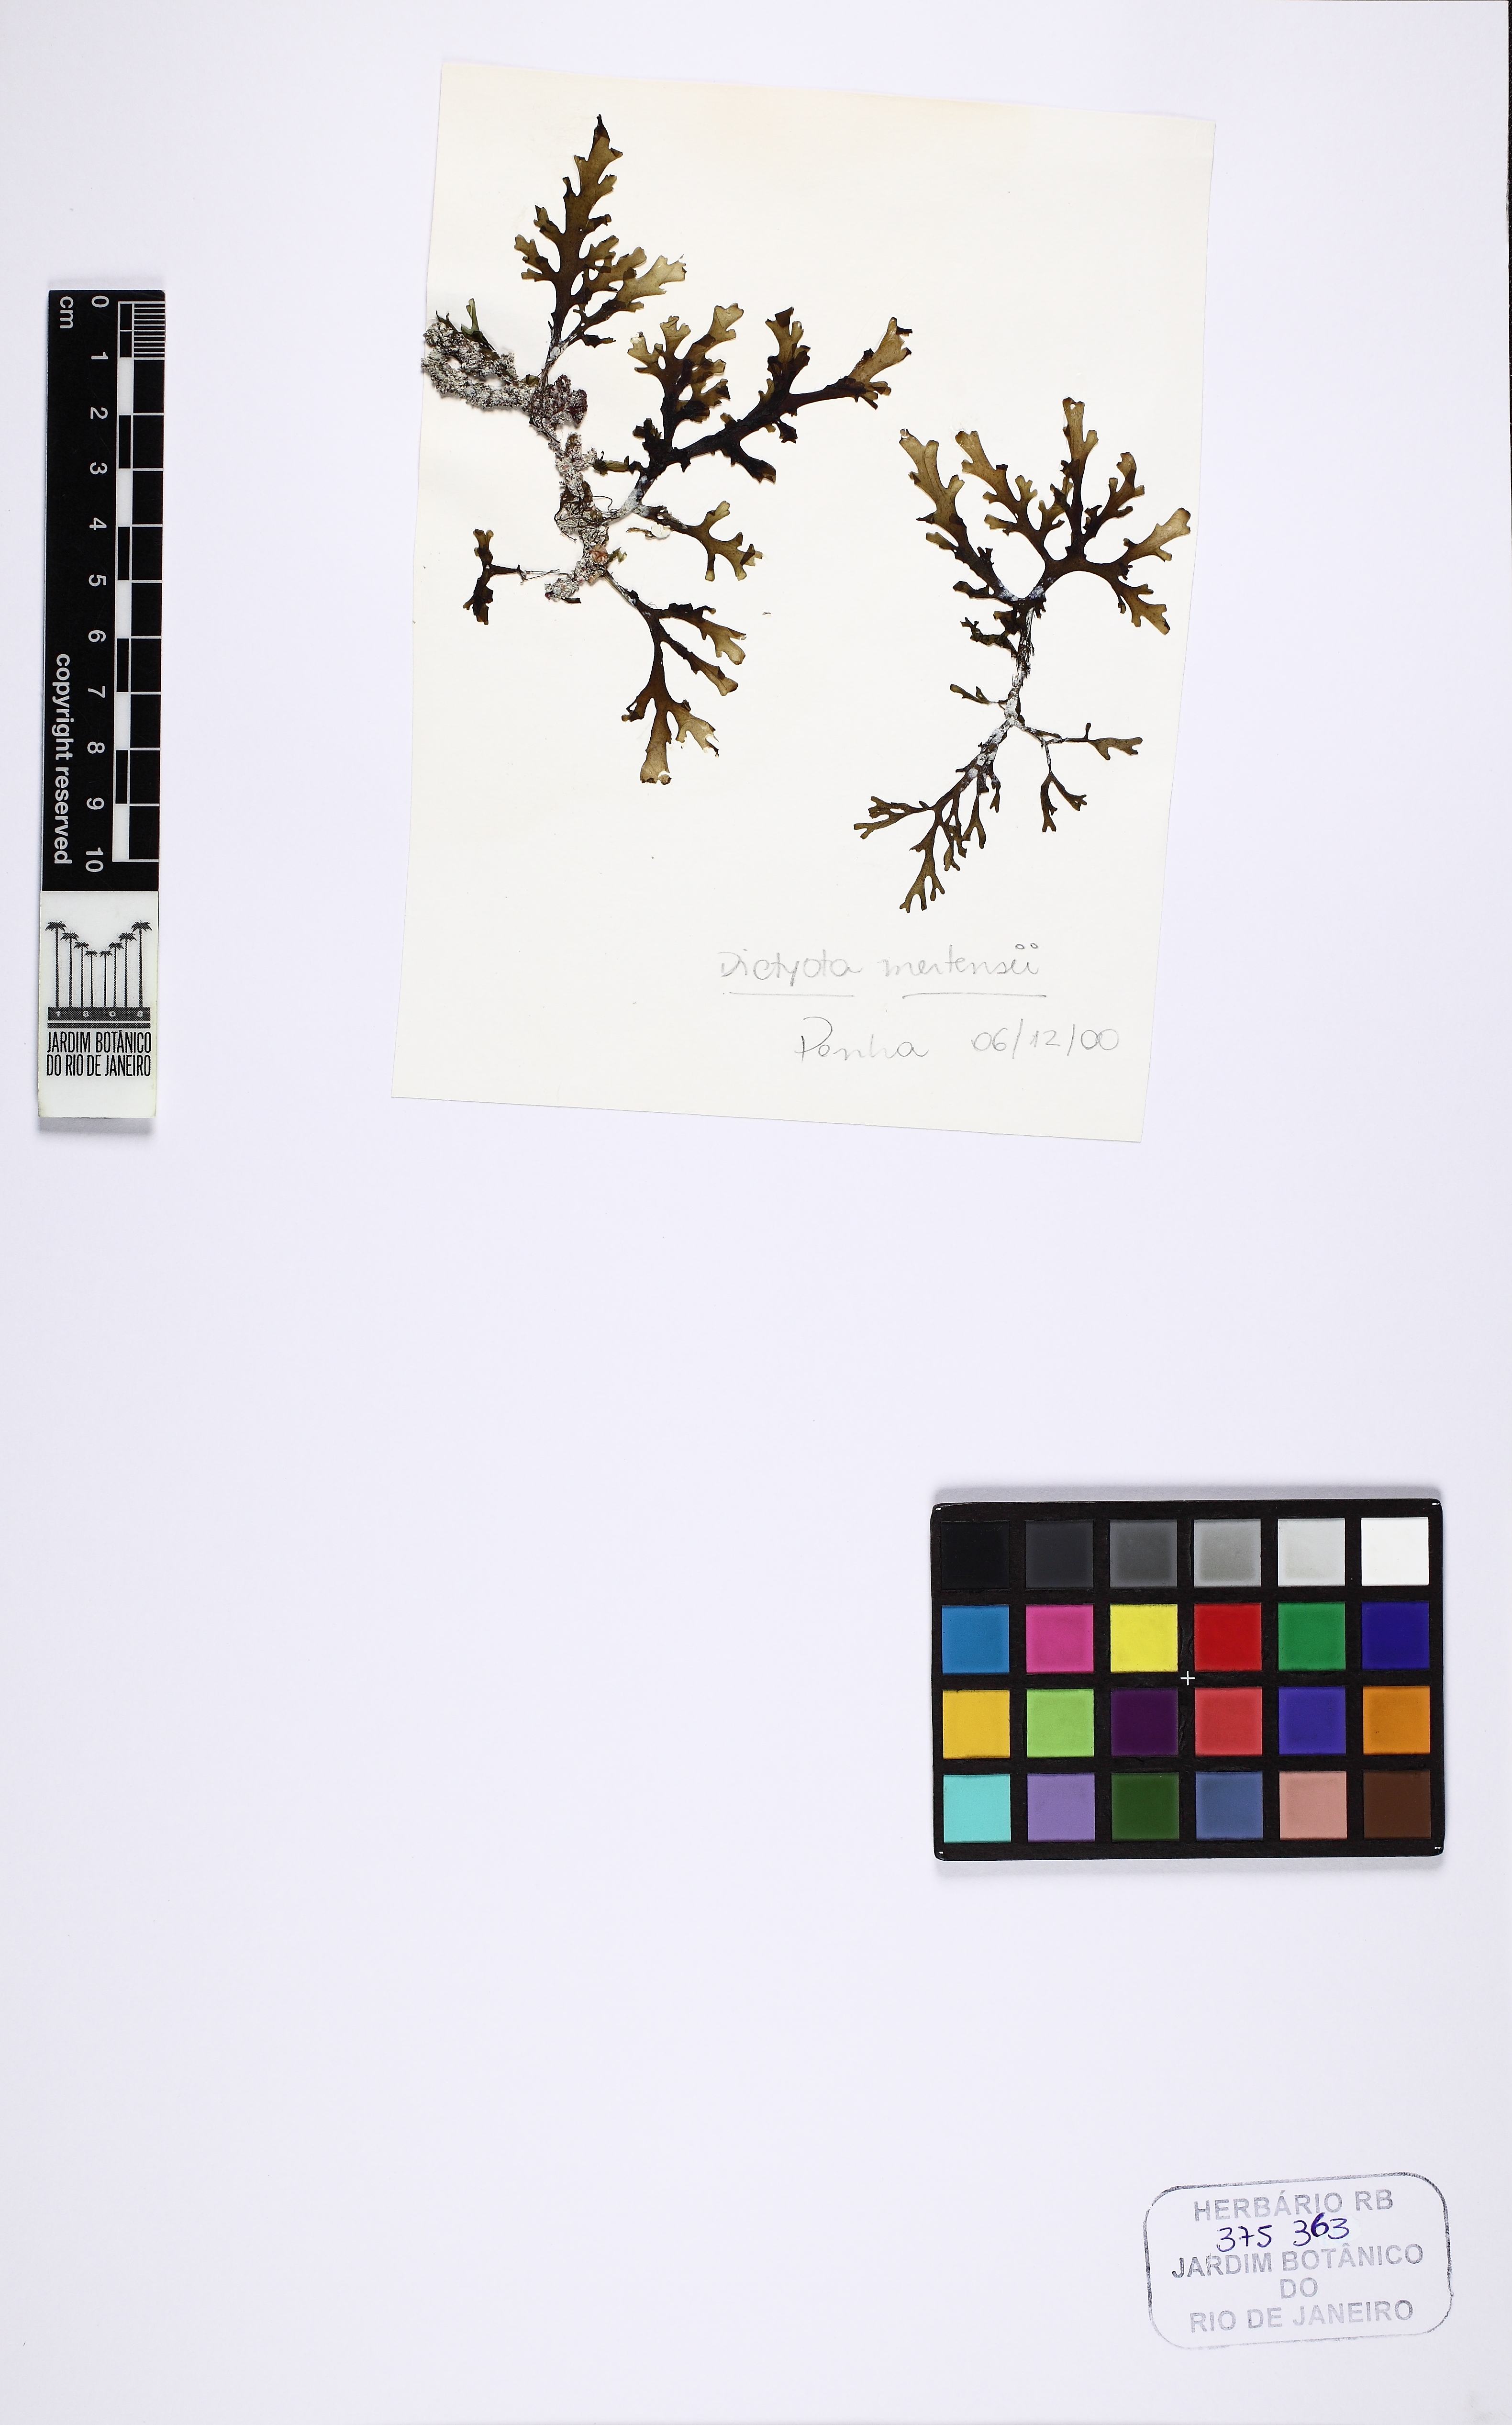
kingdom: Chromista
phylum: Ochrophyta
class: Phaeophyceae
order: Dictyotales
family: Dictyotaceae
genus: Dictyota
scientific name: Dictyota mertensii
